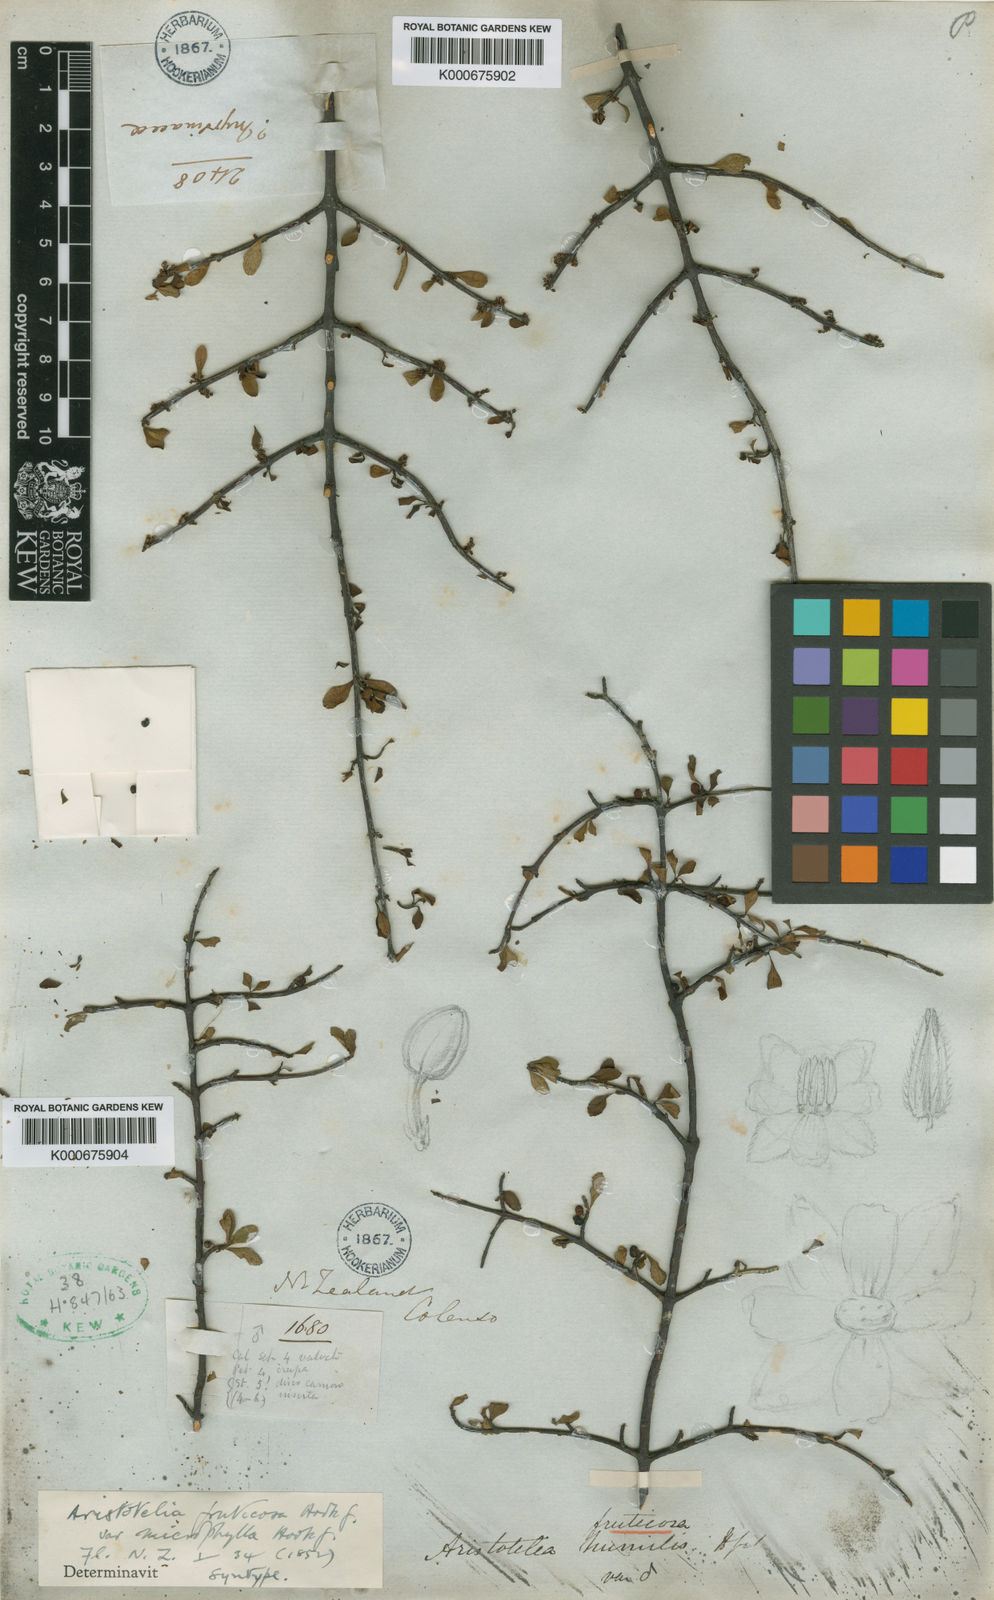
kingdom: Plantae
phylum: Tracheophyta
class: Magnoliopsida
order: Oxalidales
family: Elaeocarpaceae
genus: Aristotelia
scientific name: Aristotelia fruticosa
